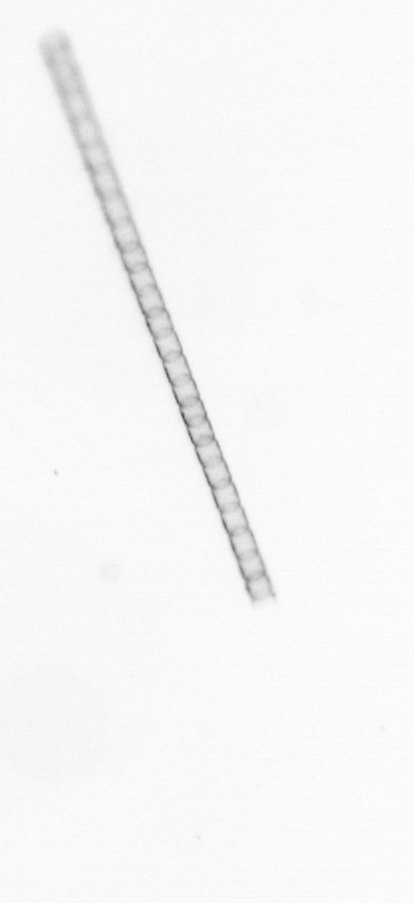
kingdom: Chromista
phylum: Ochrophyta
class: Bacillariophyceae
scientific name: Bacillariophyceae
